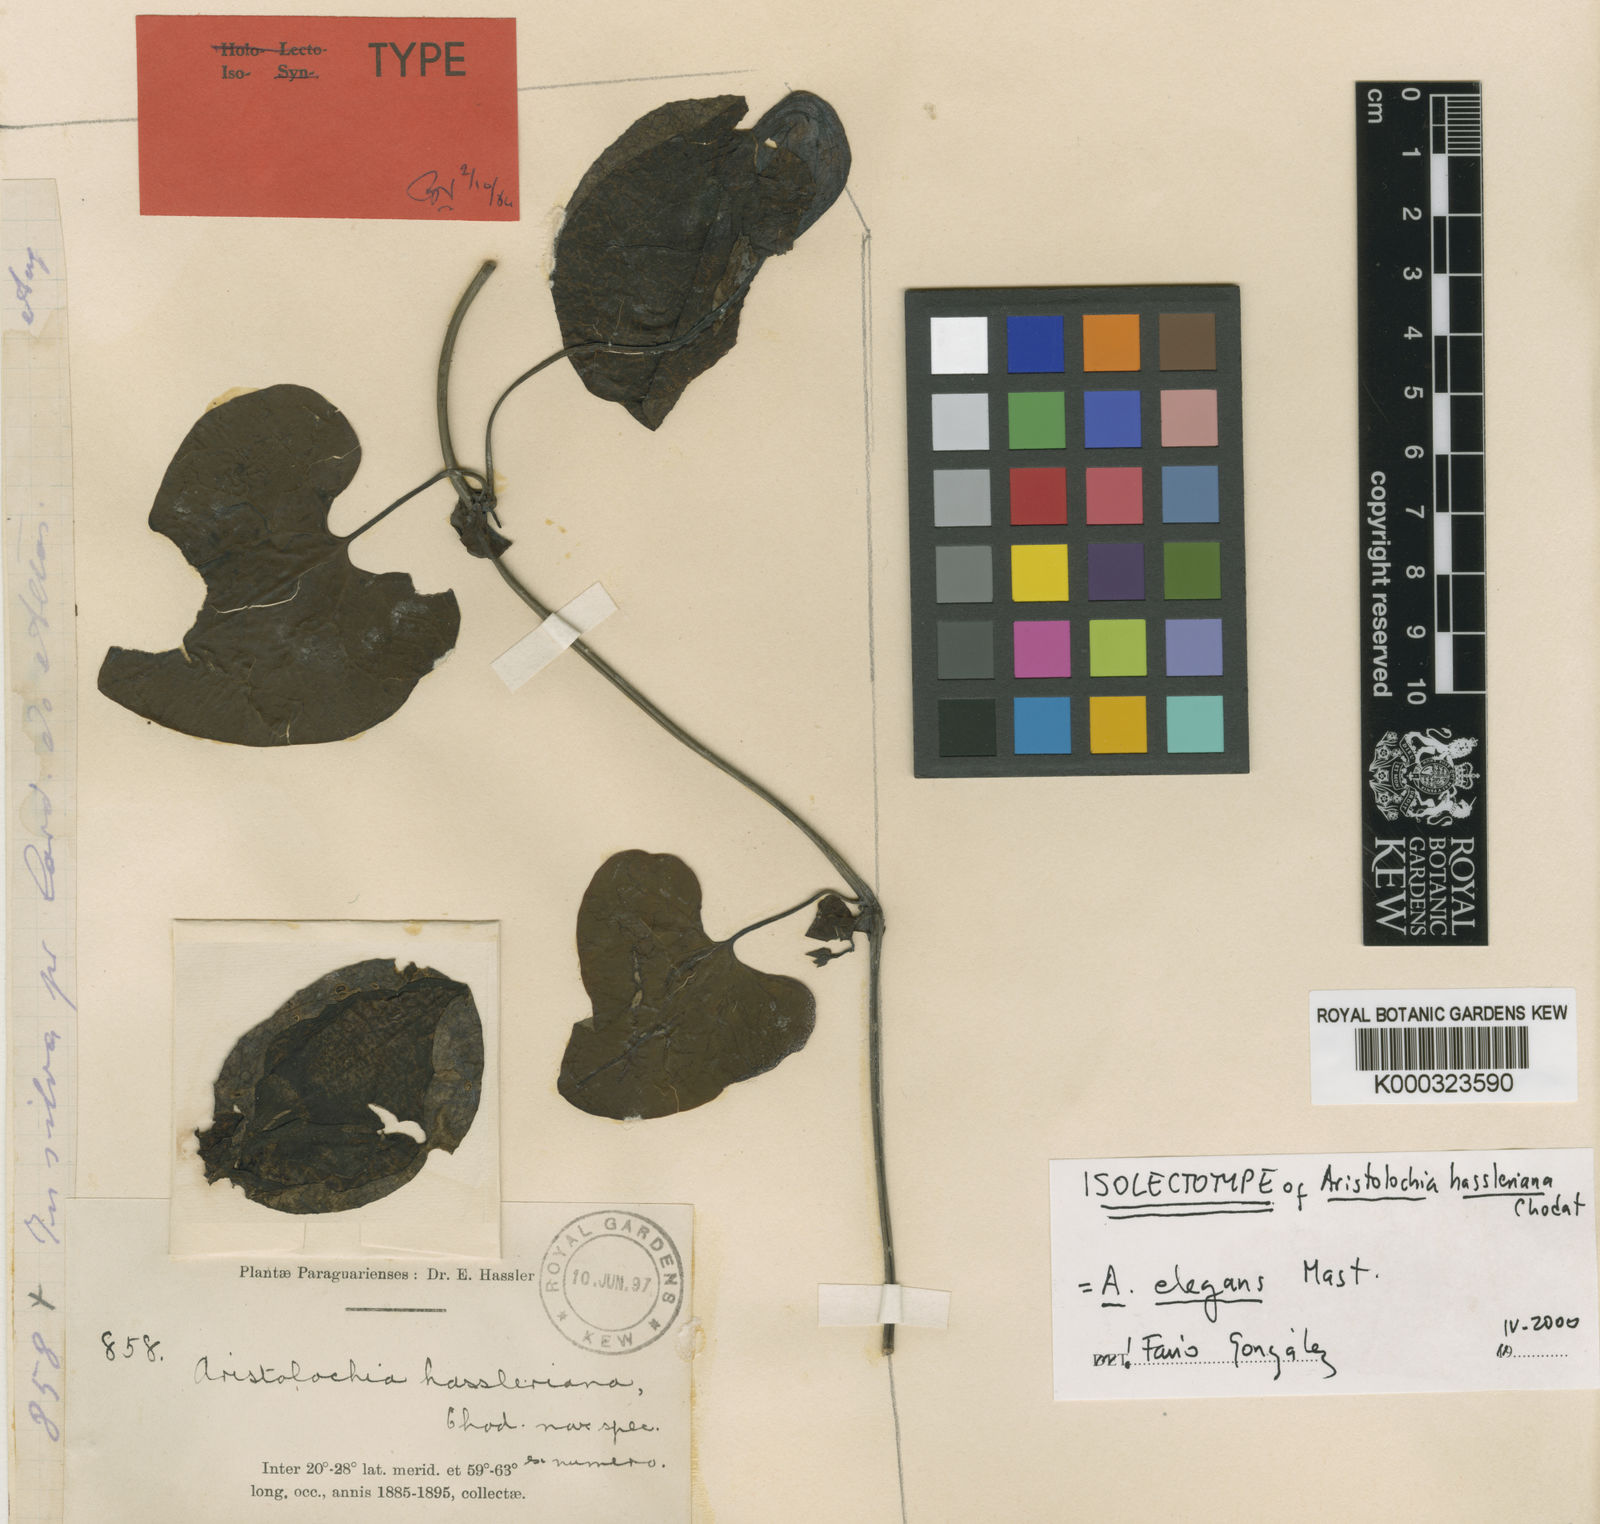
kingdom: Plantae
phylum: Tracheophyta
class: Magnoliopsida
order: Piperales
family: Aristolochiaceae
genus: Aristolochia
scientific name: Aristolochia littoralis
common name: Duck
